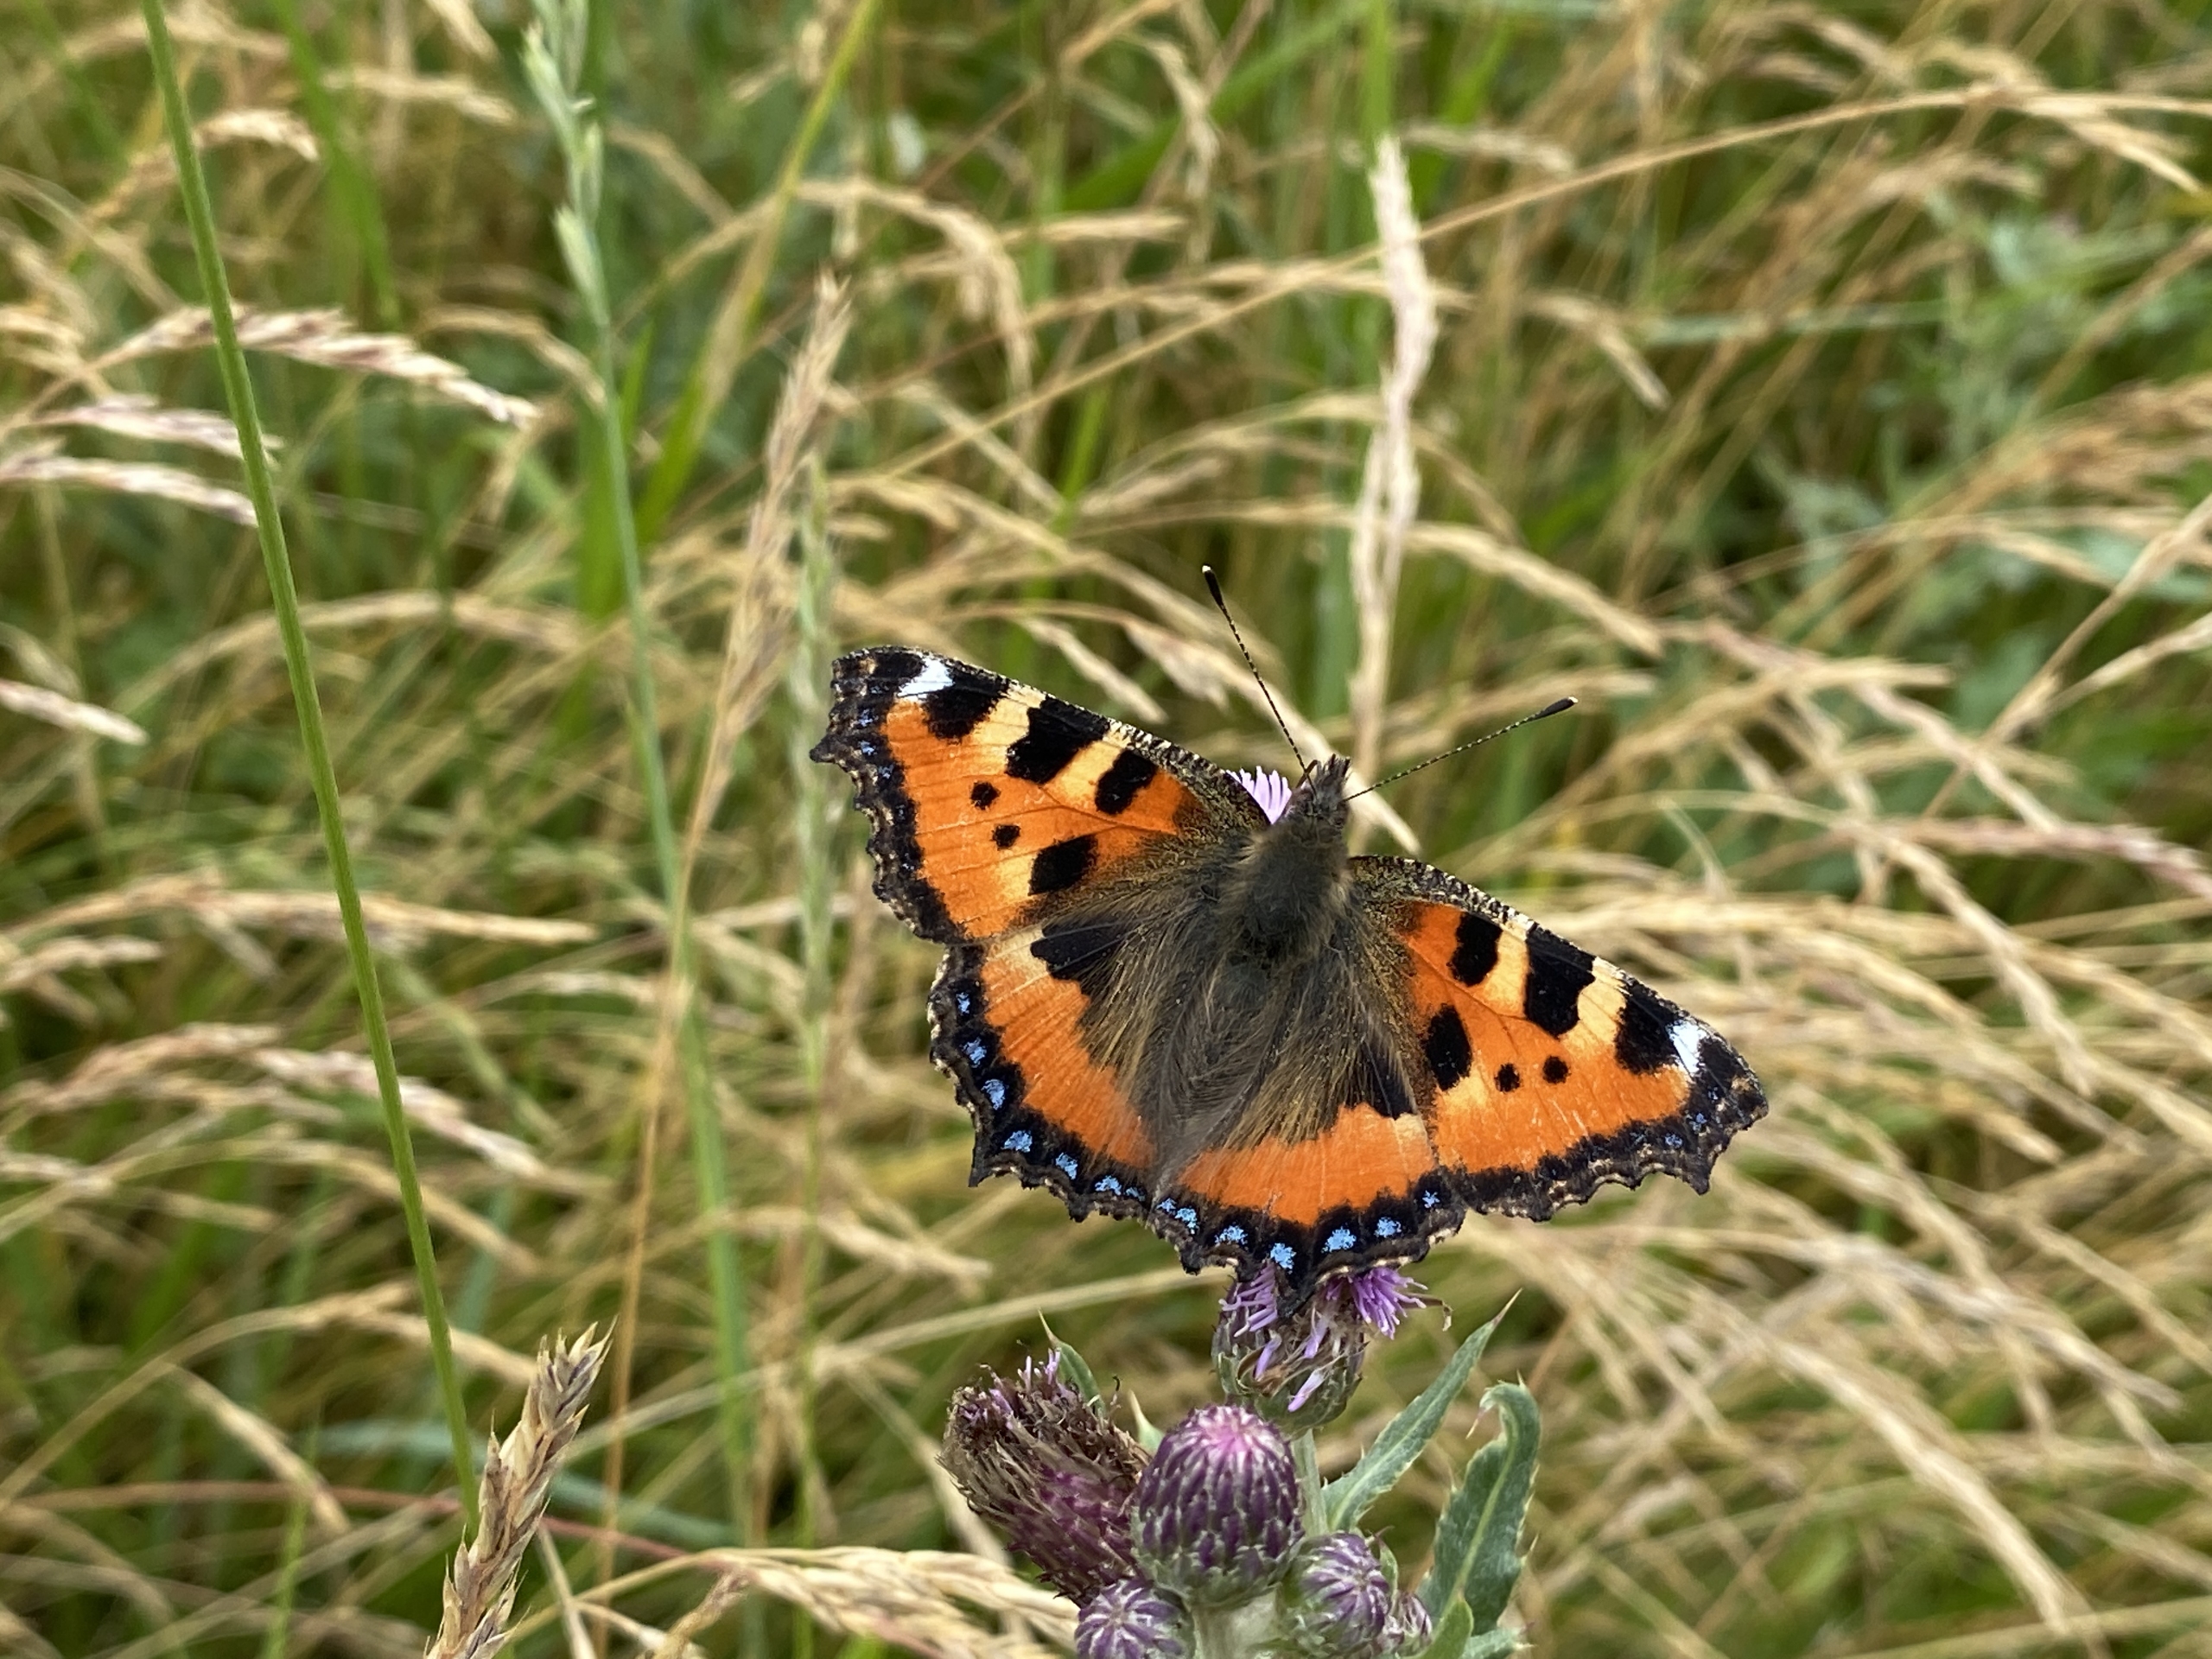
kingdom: Animalia
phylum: Arthropoda
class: Insecta
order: Lepidoptera
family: Nymphalidae
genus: Aglais
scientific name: Aglais urticae
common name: Nældens takvinge
